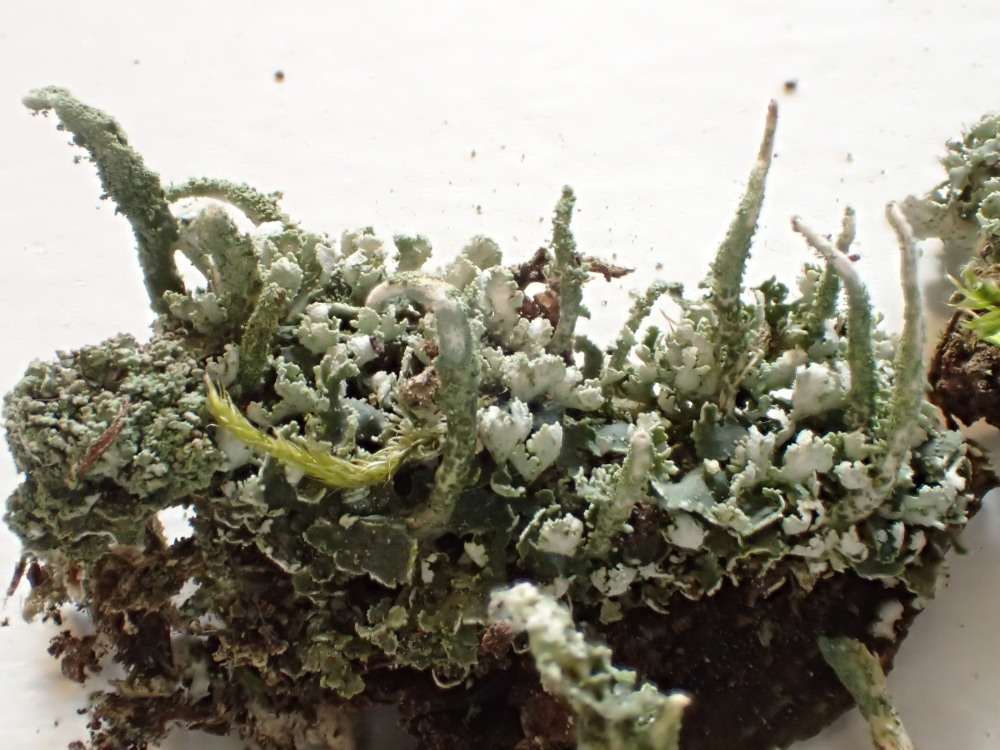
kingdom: Fungi
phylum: Ascomycota
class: Lecanoromycetes
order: Lecanorales
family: Cladoniaceae
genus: Cladonia
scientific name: Cladonia coniocraea
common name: træfods-bægerlav
